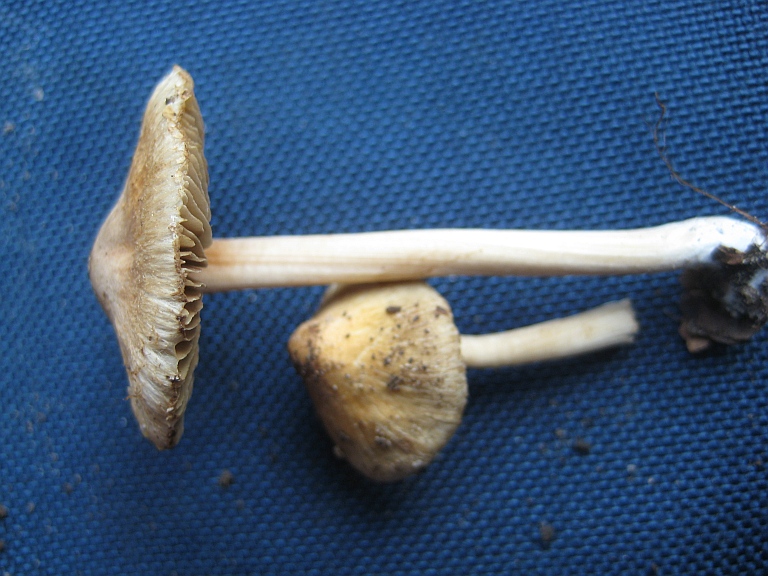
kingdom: Fungi
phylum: Basidiomycota
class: Agaricomycetes
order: Agaricales
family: Inocybaceae
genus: Inocybe
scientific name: Inocybe hirtella
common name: mandel-trævlhat
